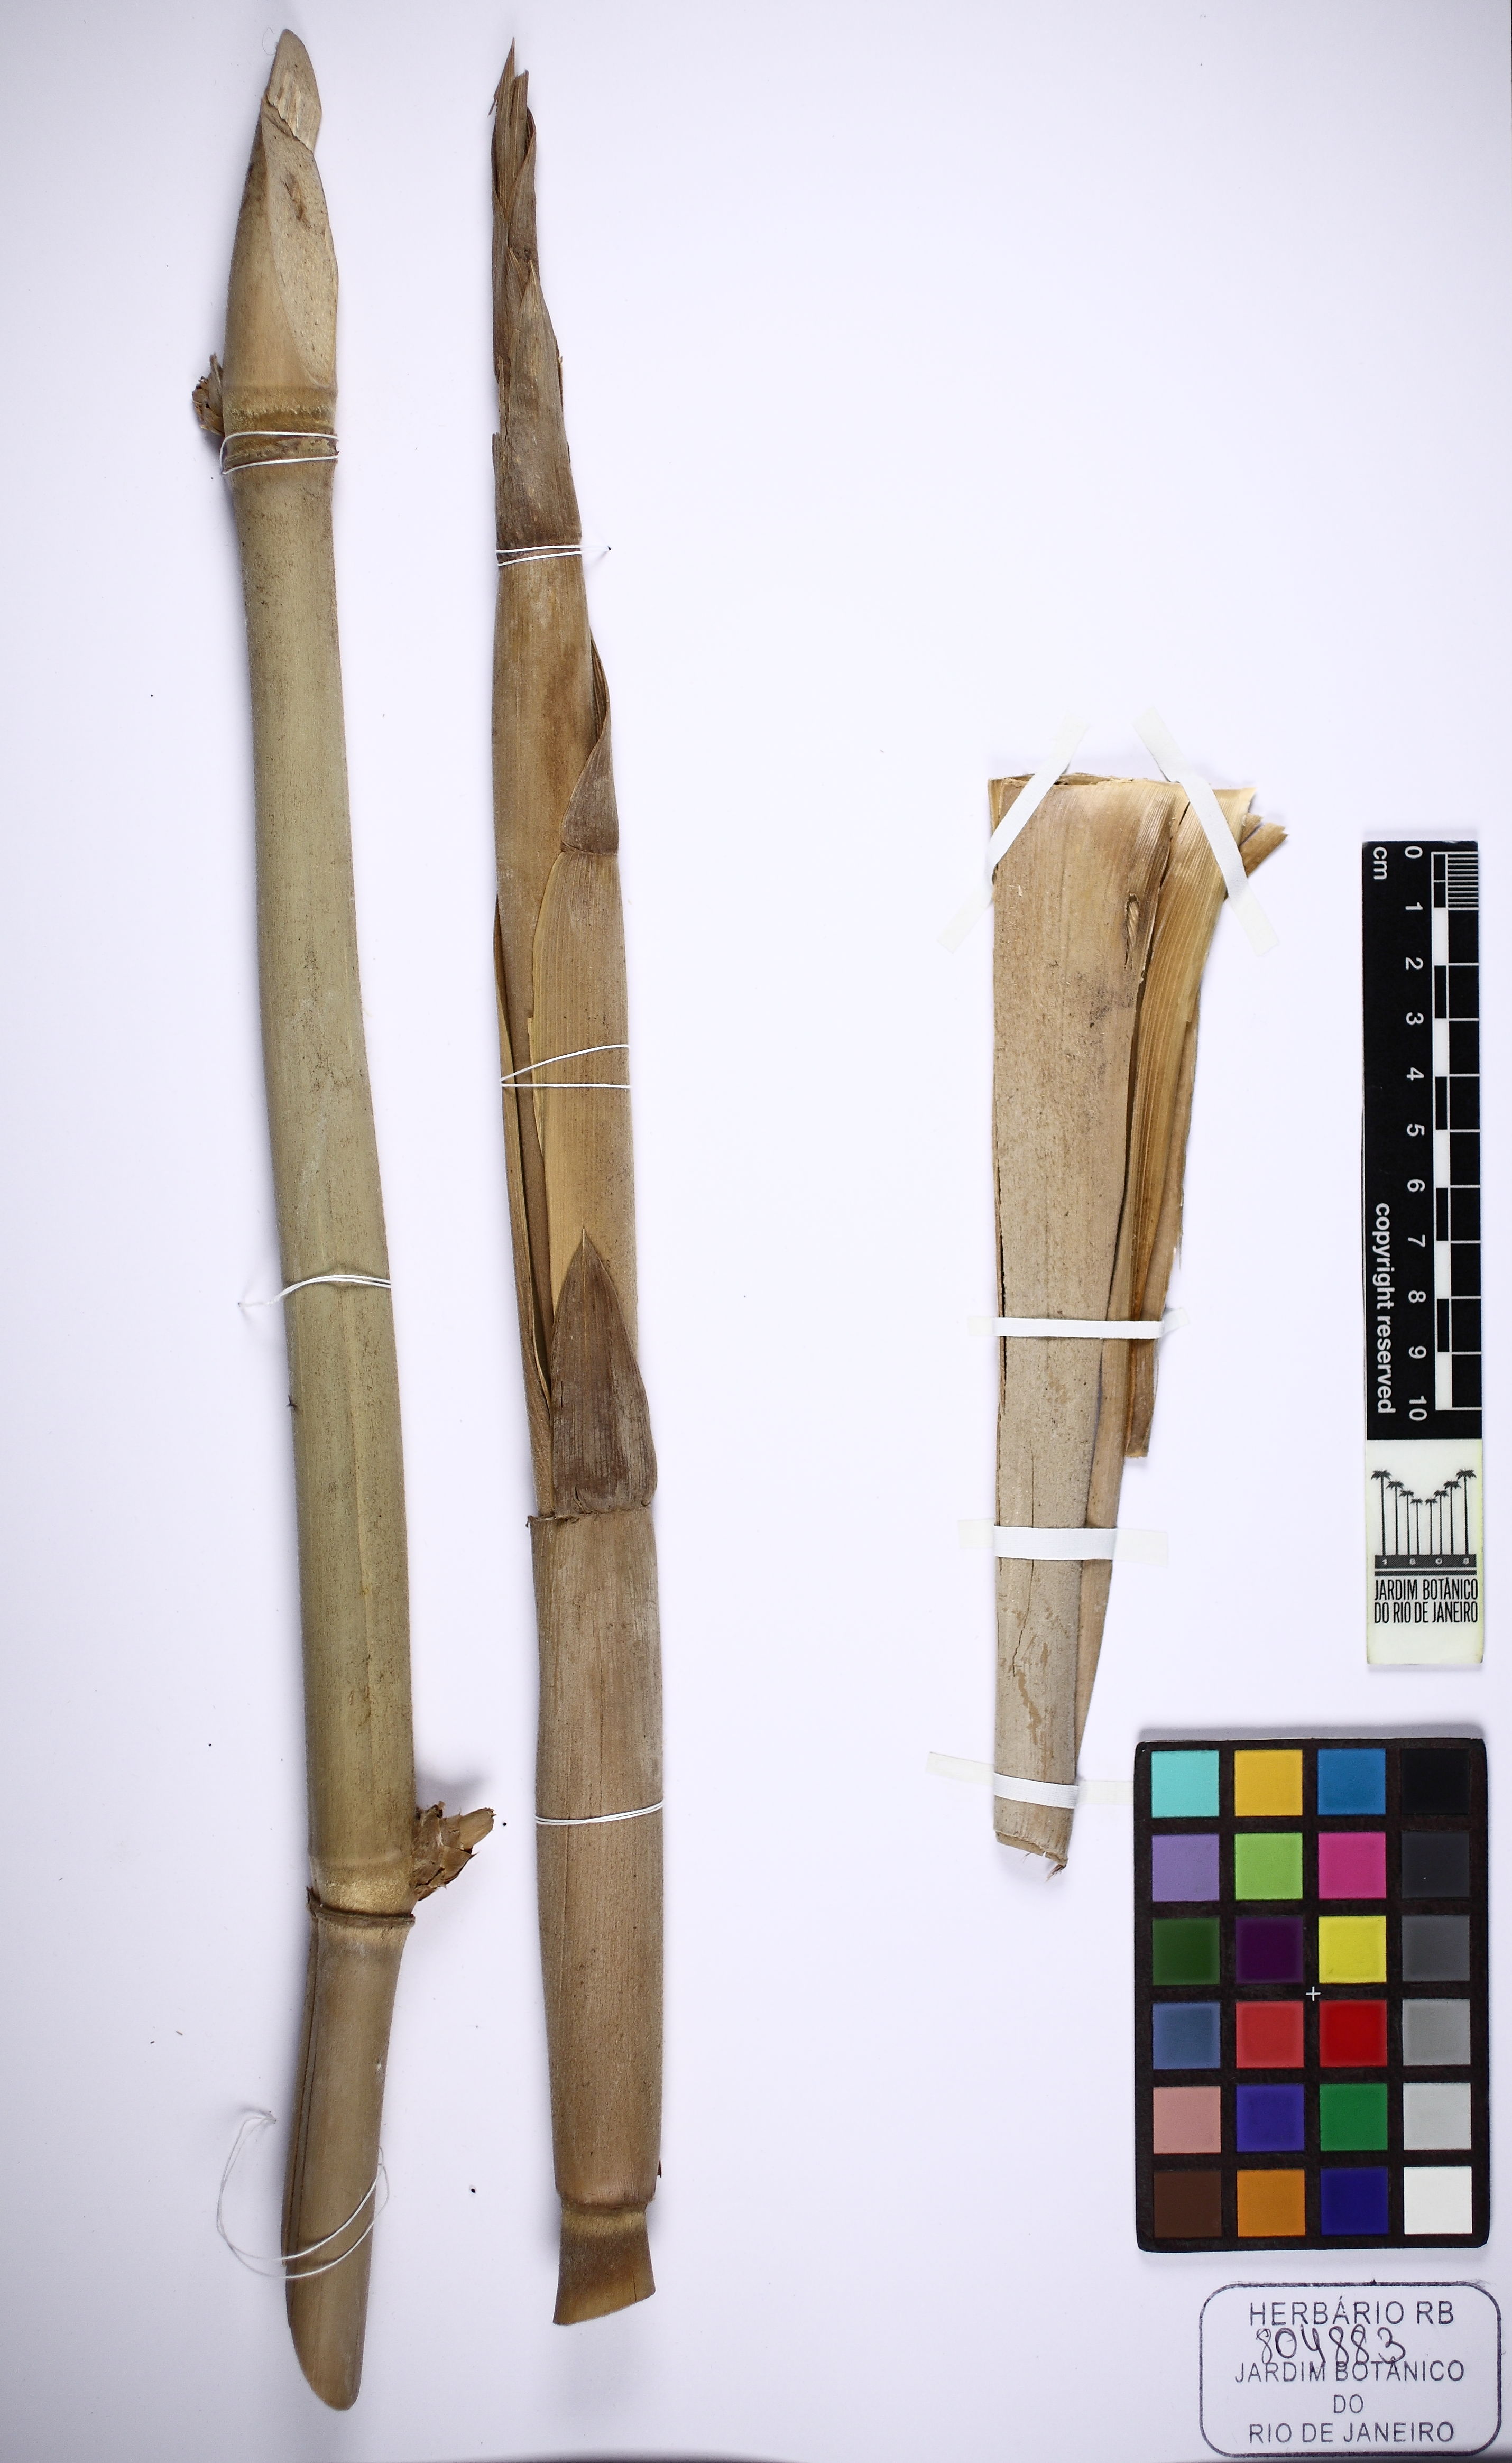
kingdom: Plantae
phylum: Tracheophyta
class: Liliopsida
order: Poales
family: Poaceae
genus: Guadua
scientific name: Guadua glomerata
